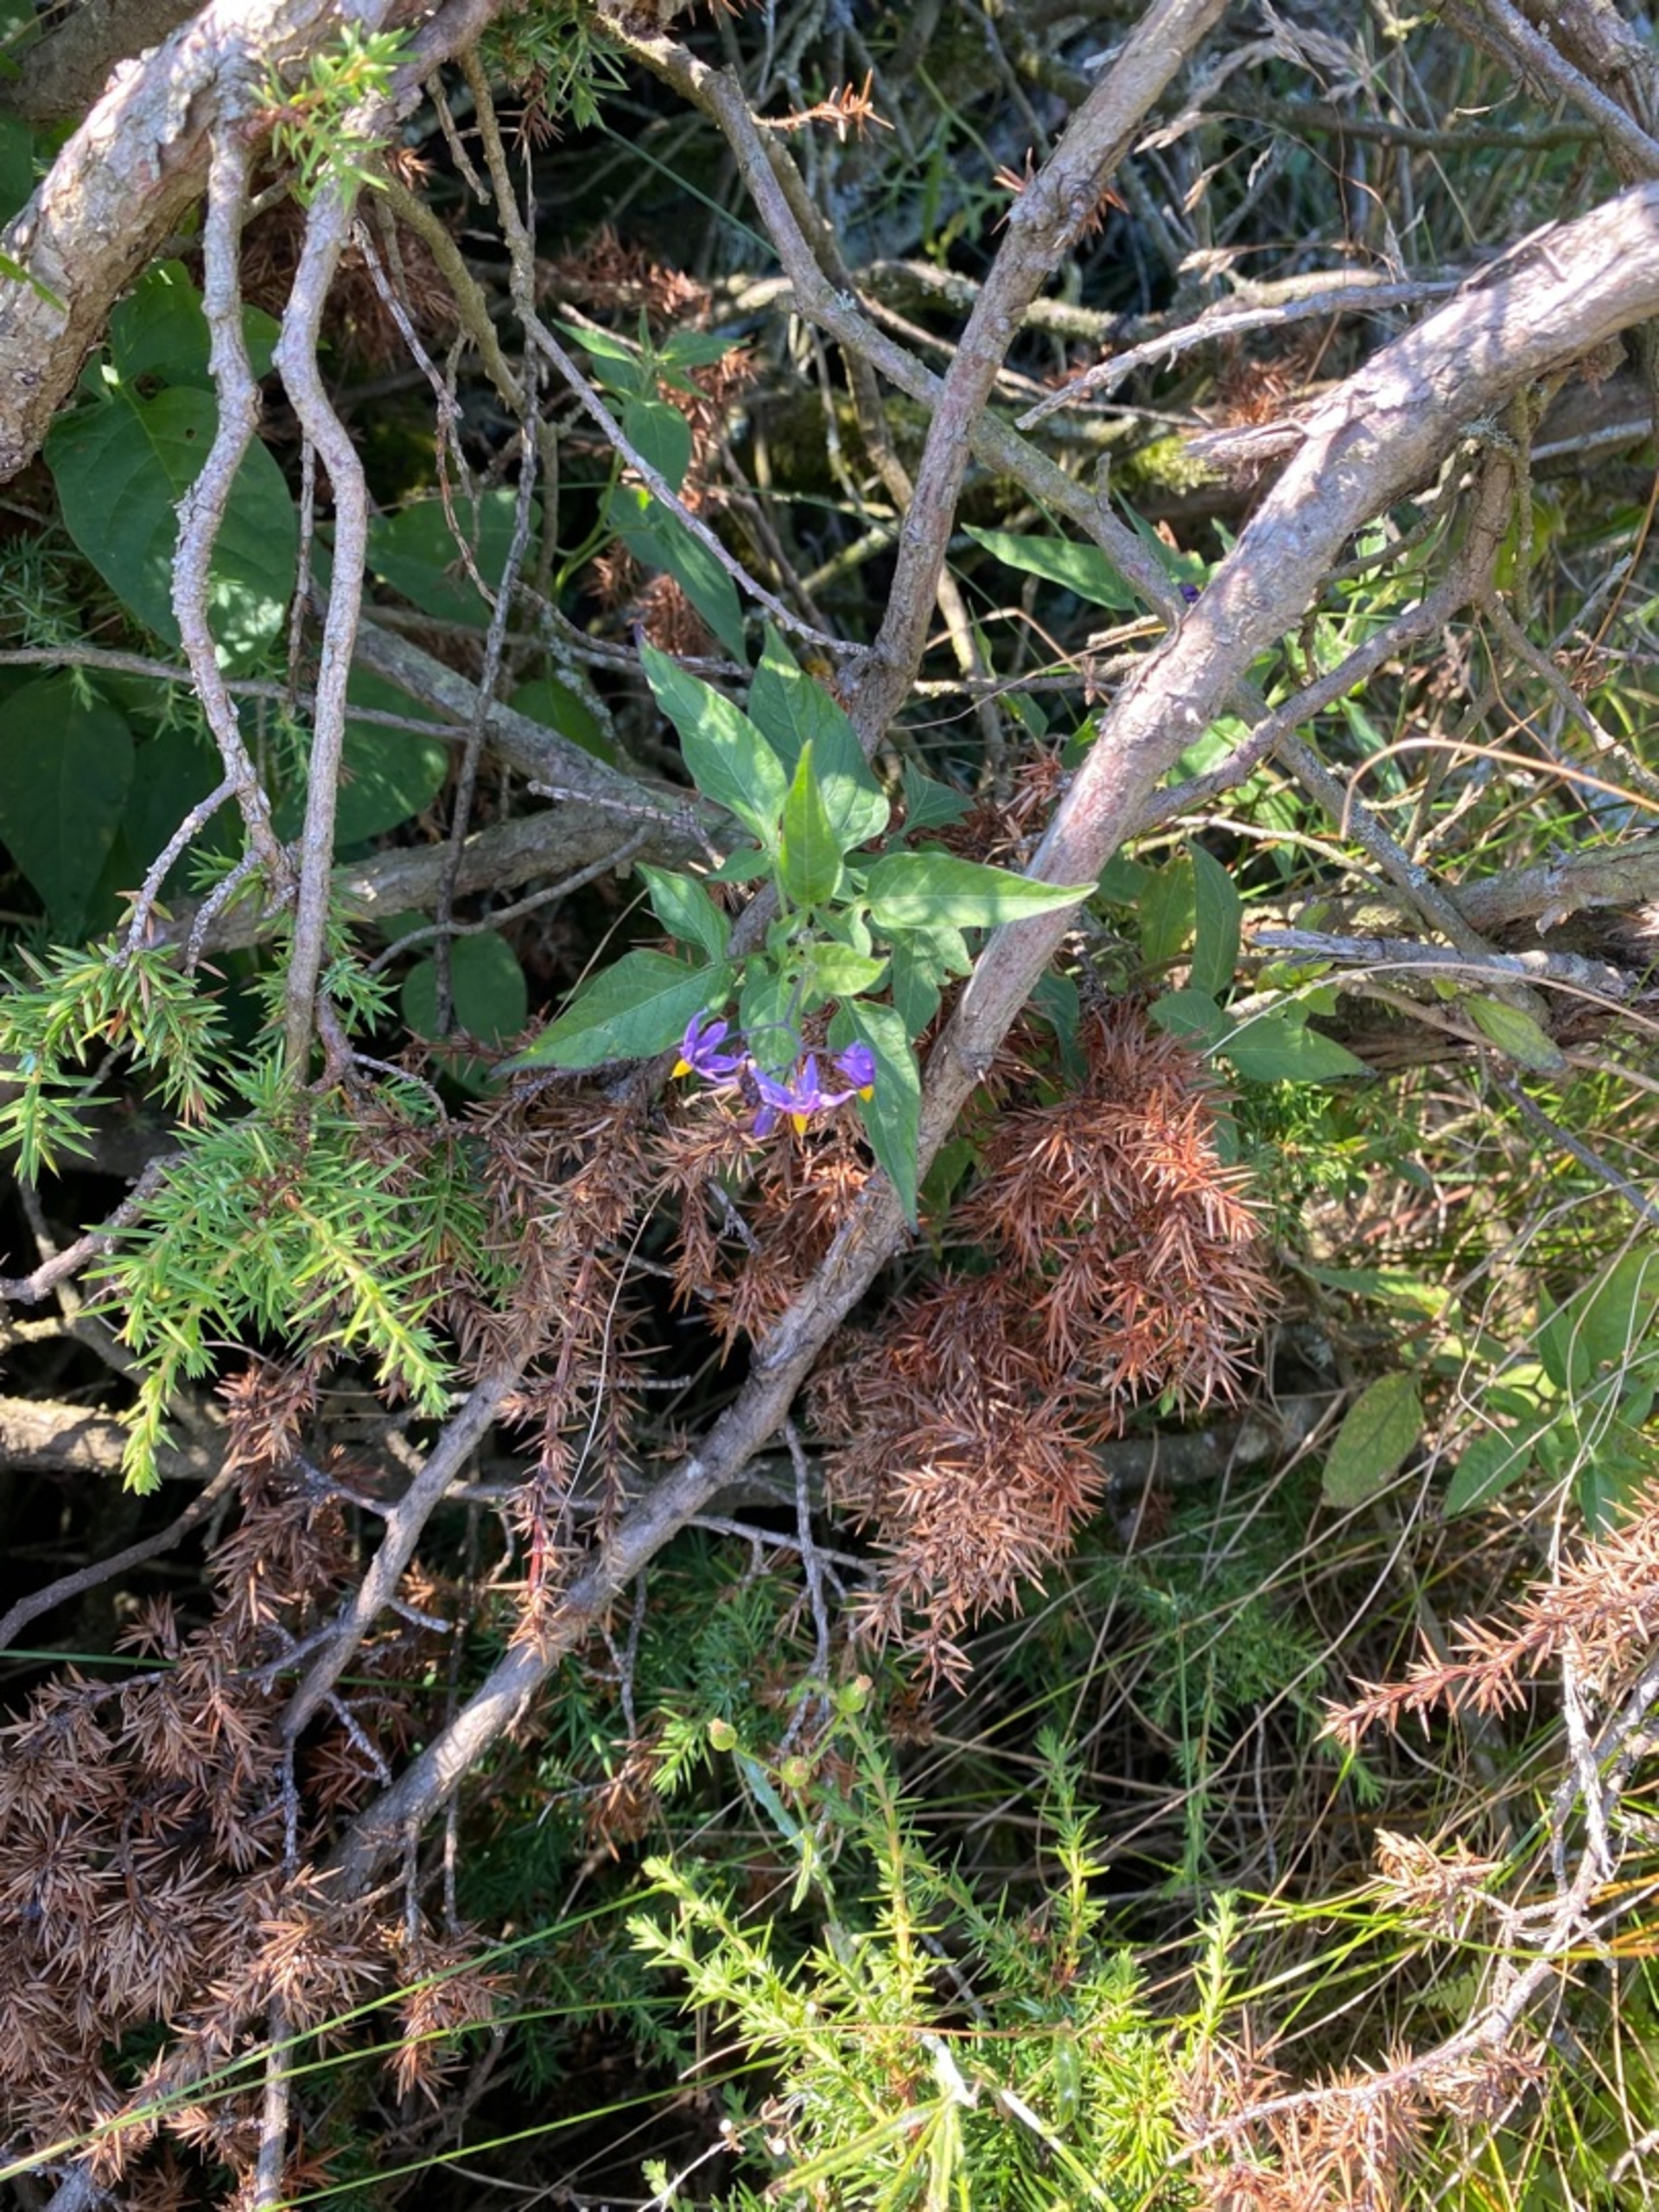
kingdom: Plantae
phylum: Tracheophyta
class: Magnoliopsida
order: Solanales
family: Solanaceae
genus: Solanum
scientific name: Solanum dulcamara
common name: Bittersød natskygge
